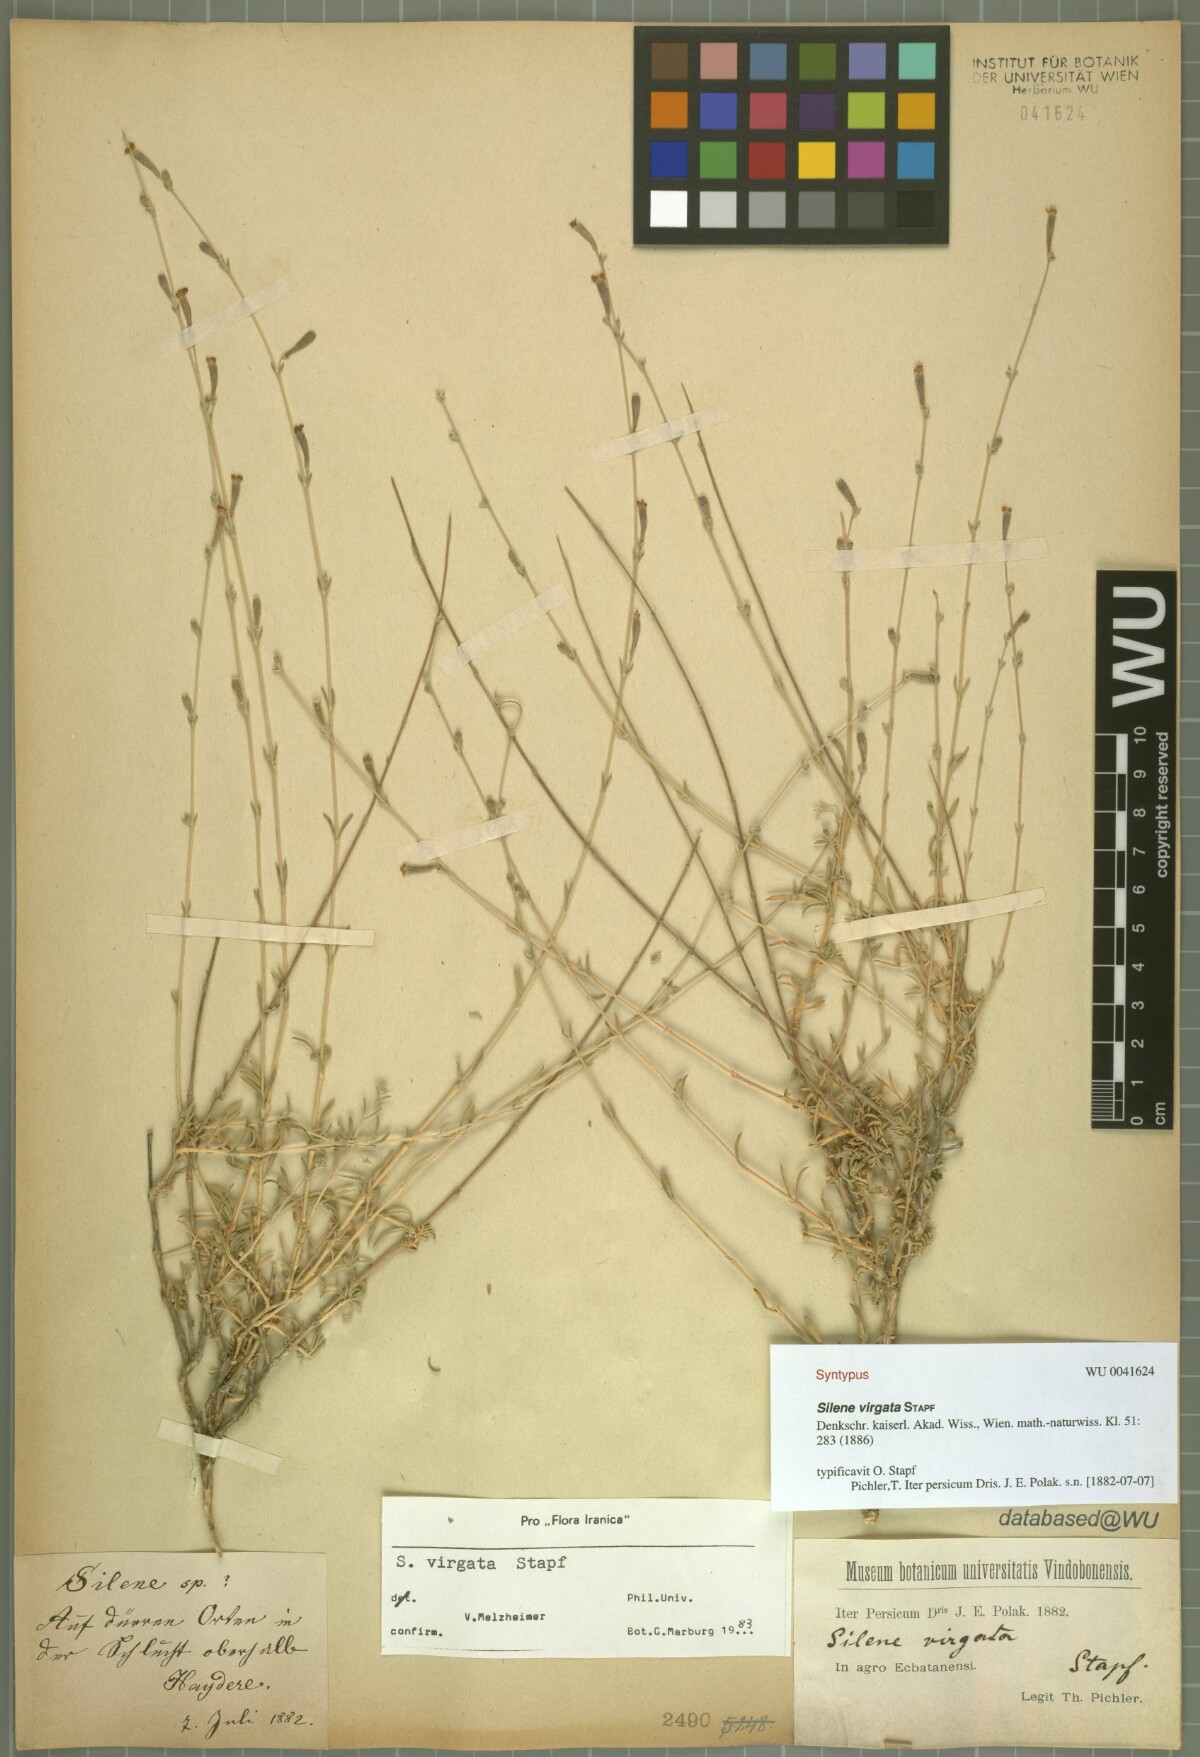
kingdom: Plantae
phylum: Tracheophyta
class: Magnoliopsida
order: Caryophyllales
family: Caryophyllaceae
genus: Silene
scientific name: Silene virgata
